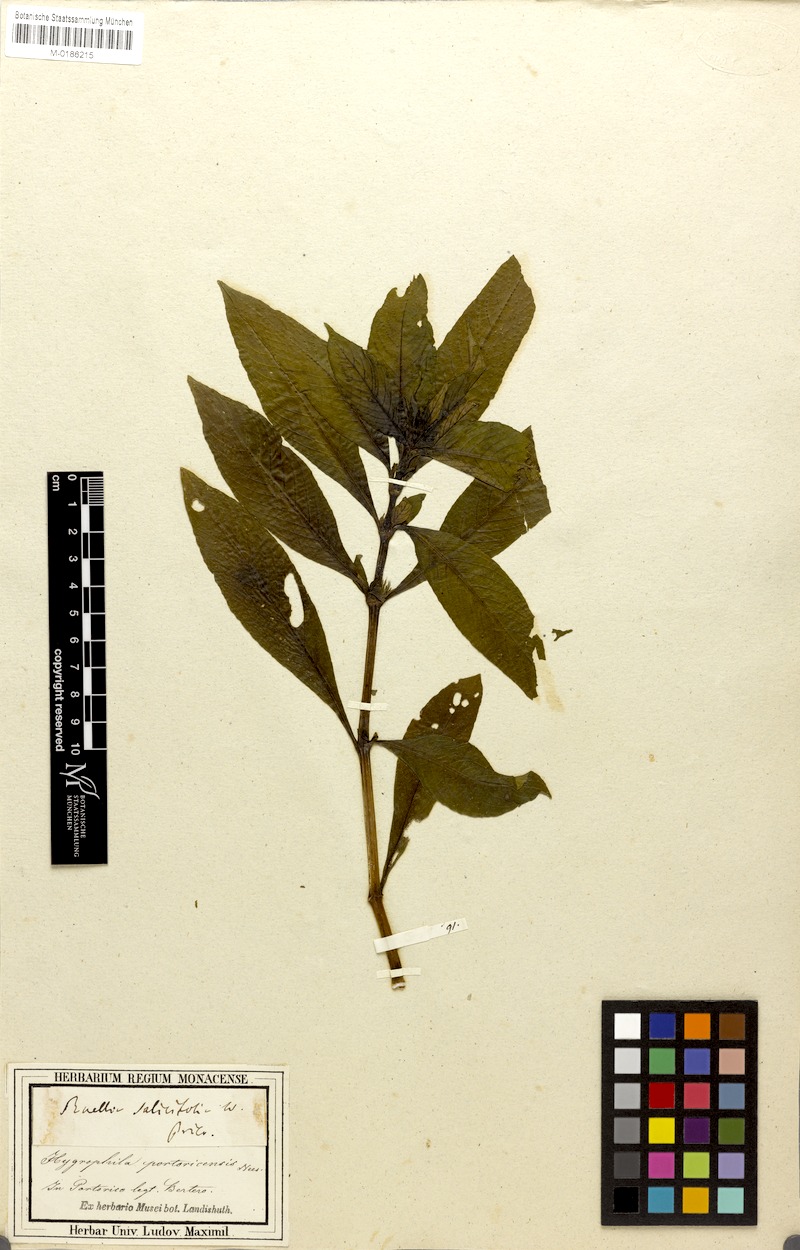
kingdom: Plantae
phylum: Tracheophyta
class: Magnoliopsida
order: Lamiales
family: Acanthaceae
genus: Hygrophila
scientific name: Hygrophila costata
